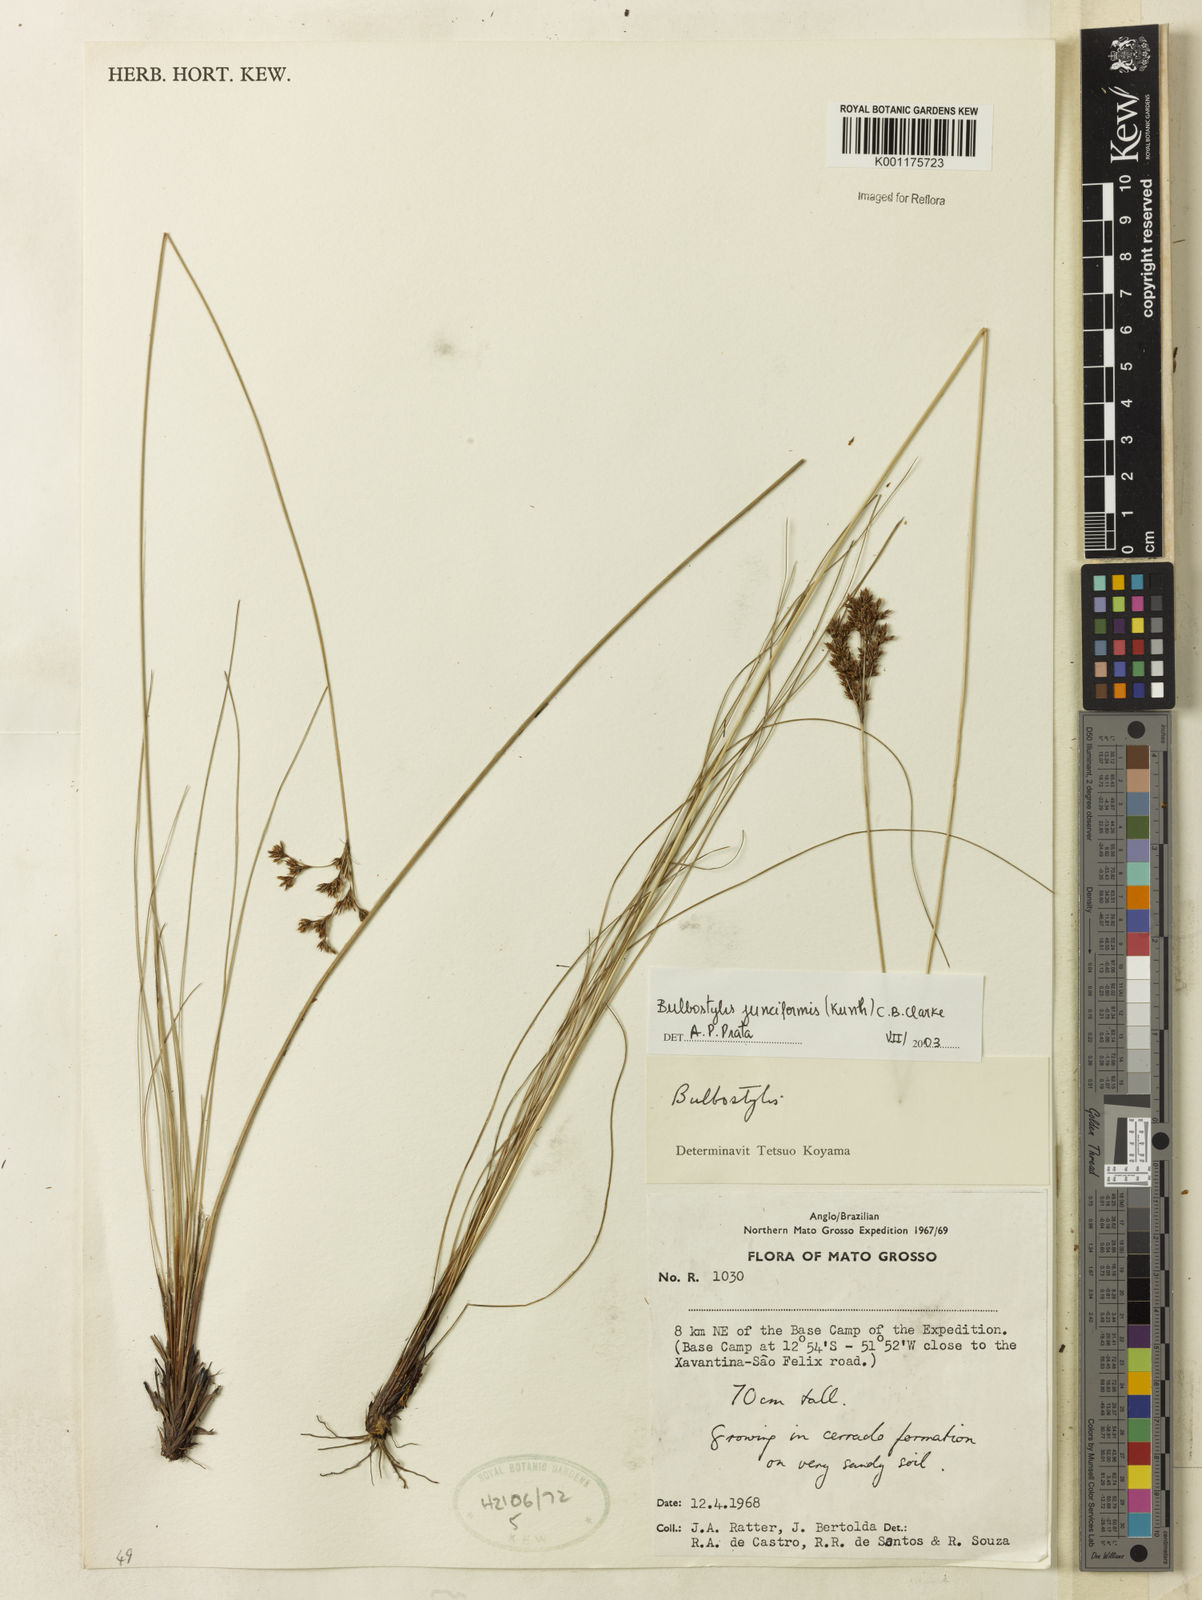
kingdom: Plantae
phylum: Tracheophyta
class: Liliopsida
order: Poales
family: Cyperaceae
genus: Bulbostylis
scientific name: Bulbostylis junciformis
